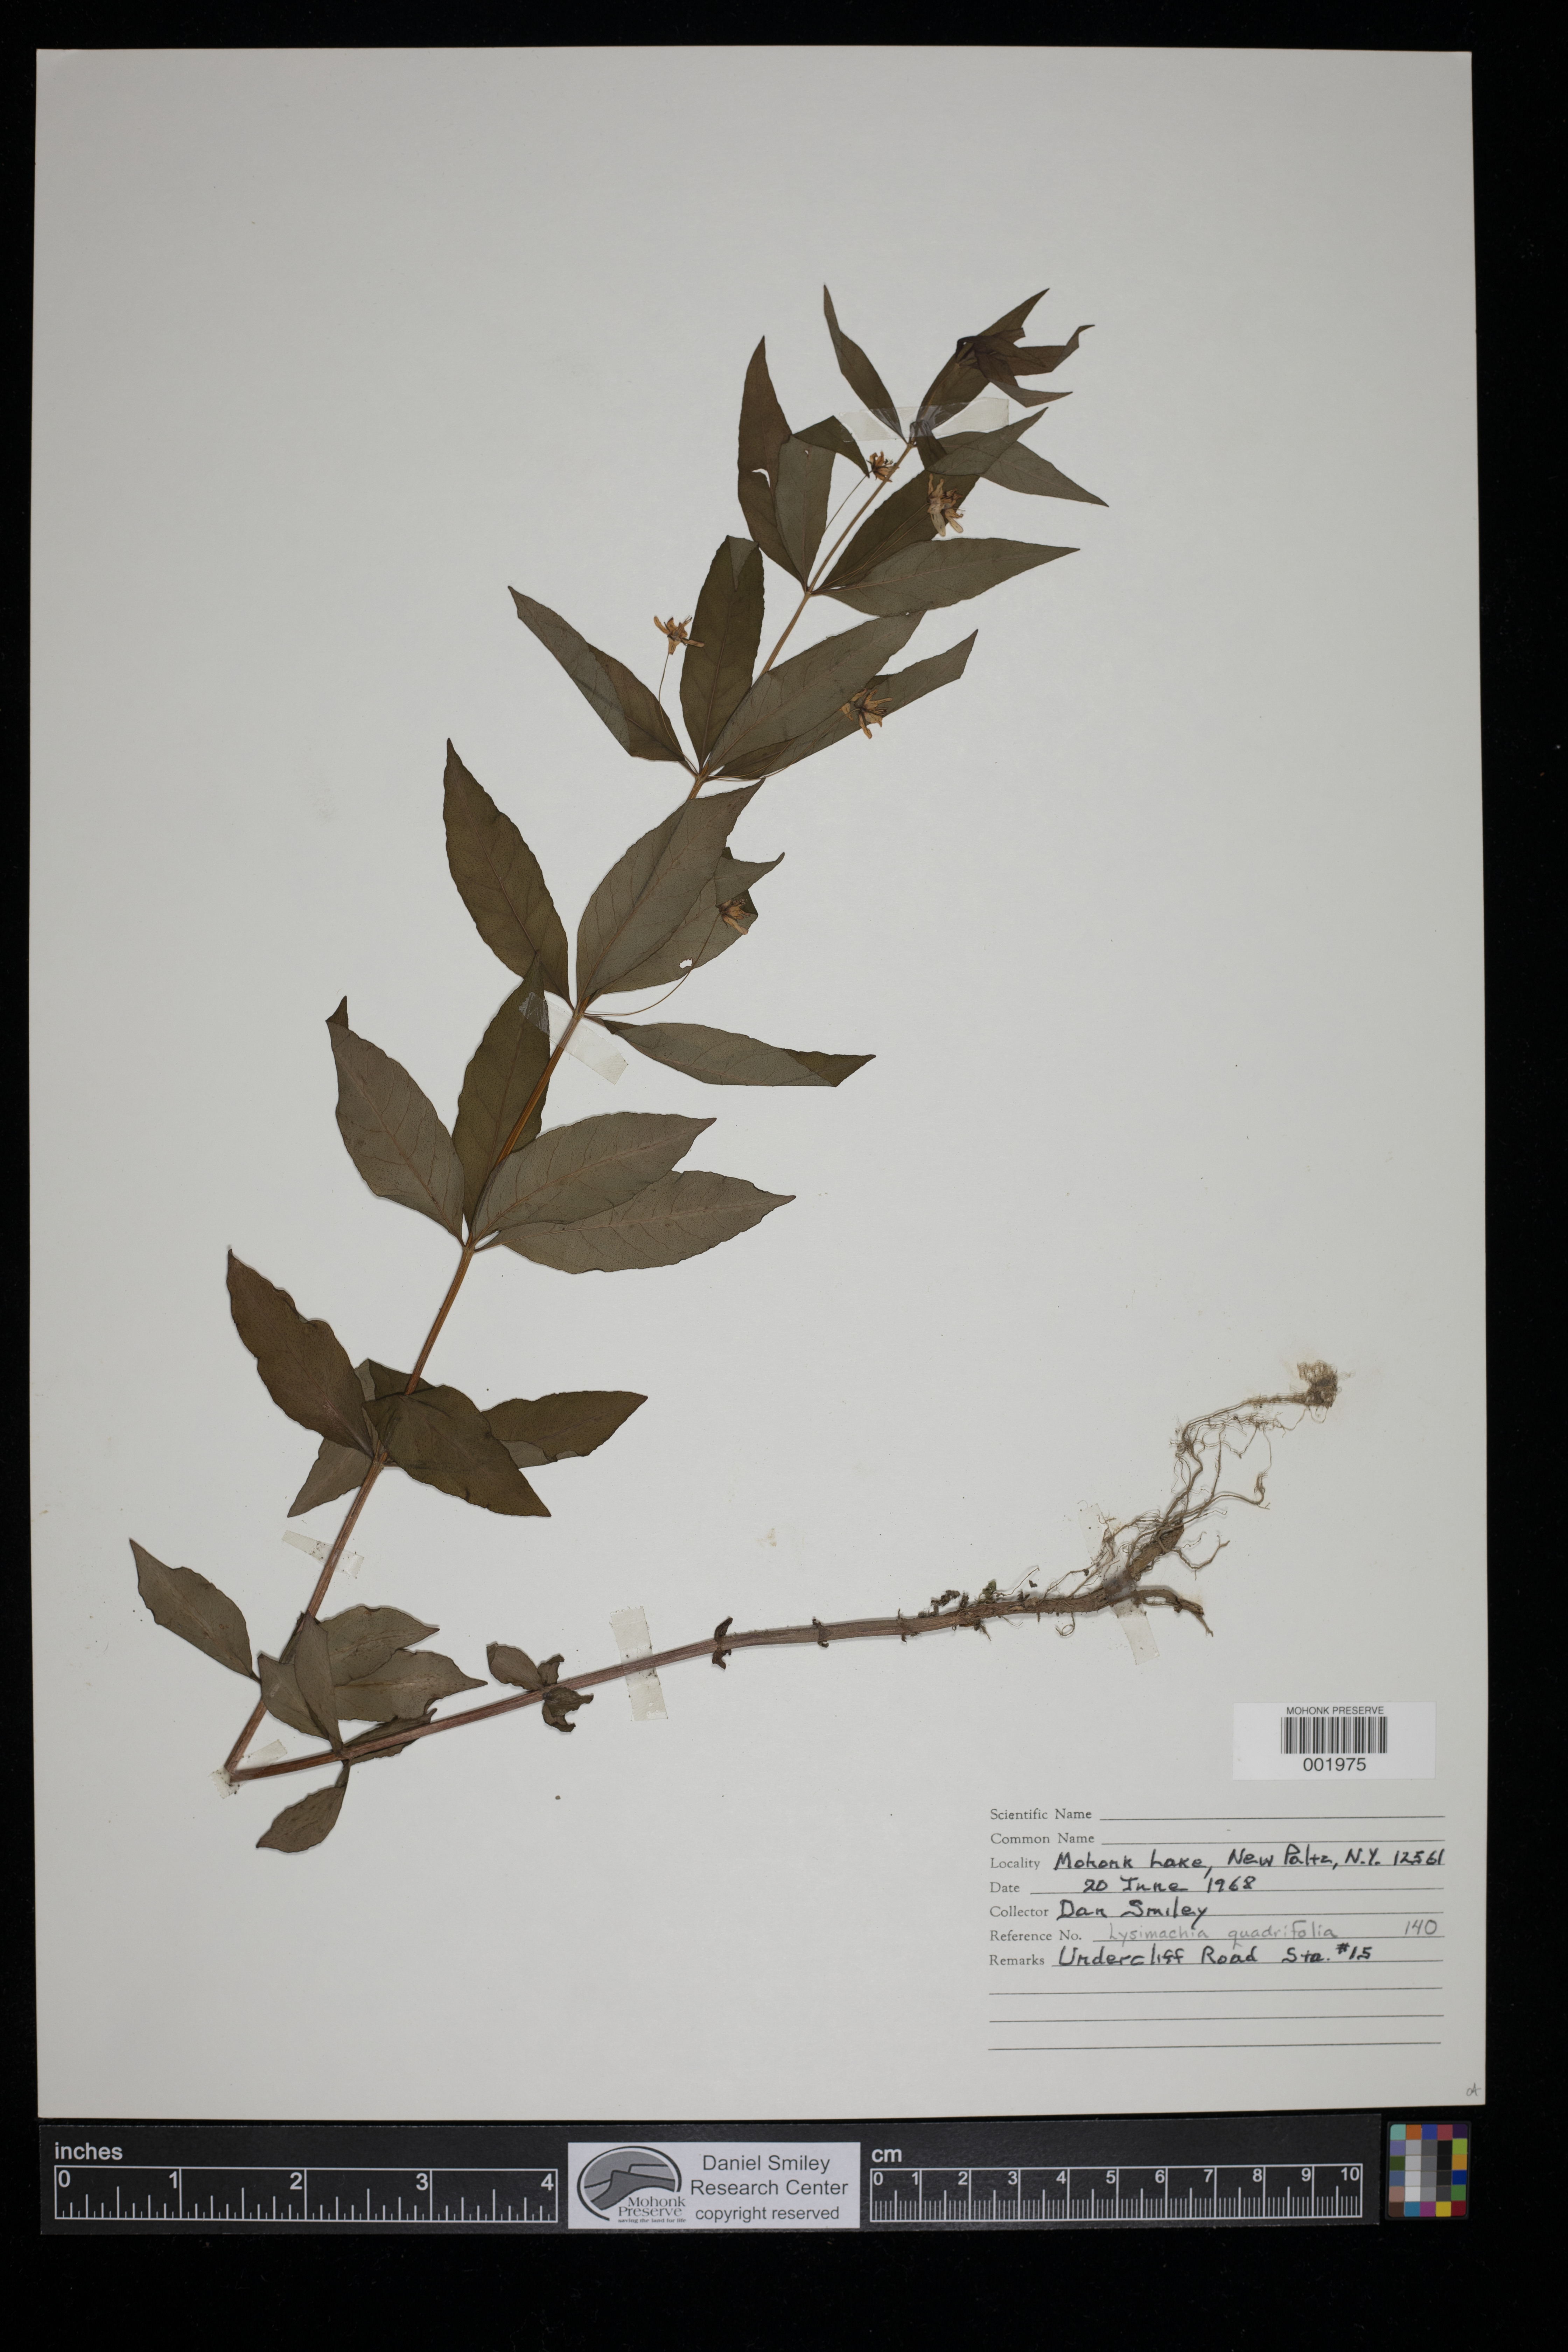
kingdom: Plantae
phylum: Tracheophyta
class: Magnoliopsida
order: Ericales
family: Primulaceae
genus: Lysimachia
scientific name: Lysimachia quadrifolia
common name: Whorled loosestrife
